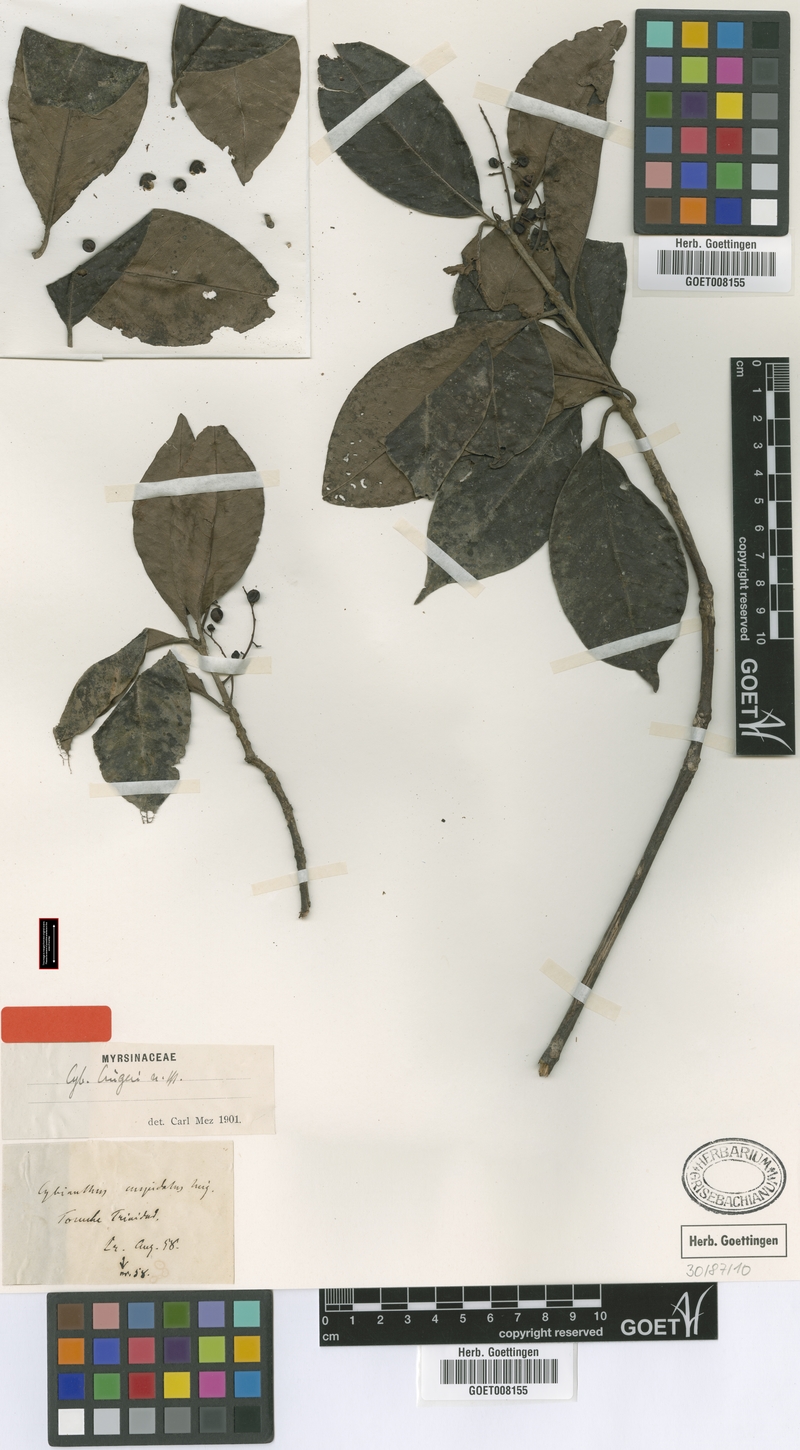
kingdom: Plantae
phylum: Tracheophyta
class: Magnoliopsida
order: Ericales
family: Primulaceae
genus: Cybianthus
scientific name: Cybianthus cruegeri
